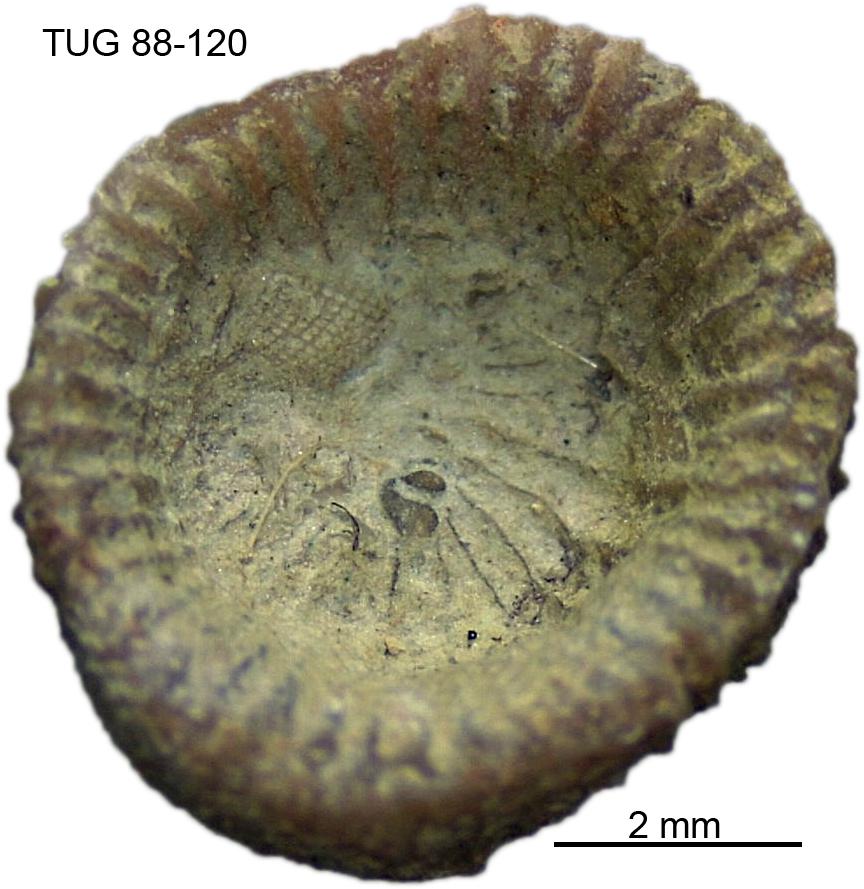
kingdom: Animalia
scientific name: Animalia
